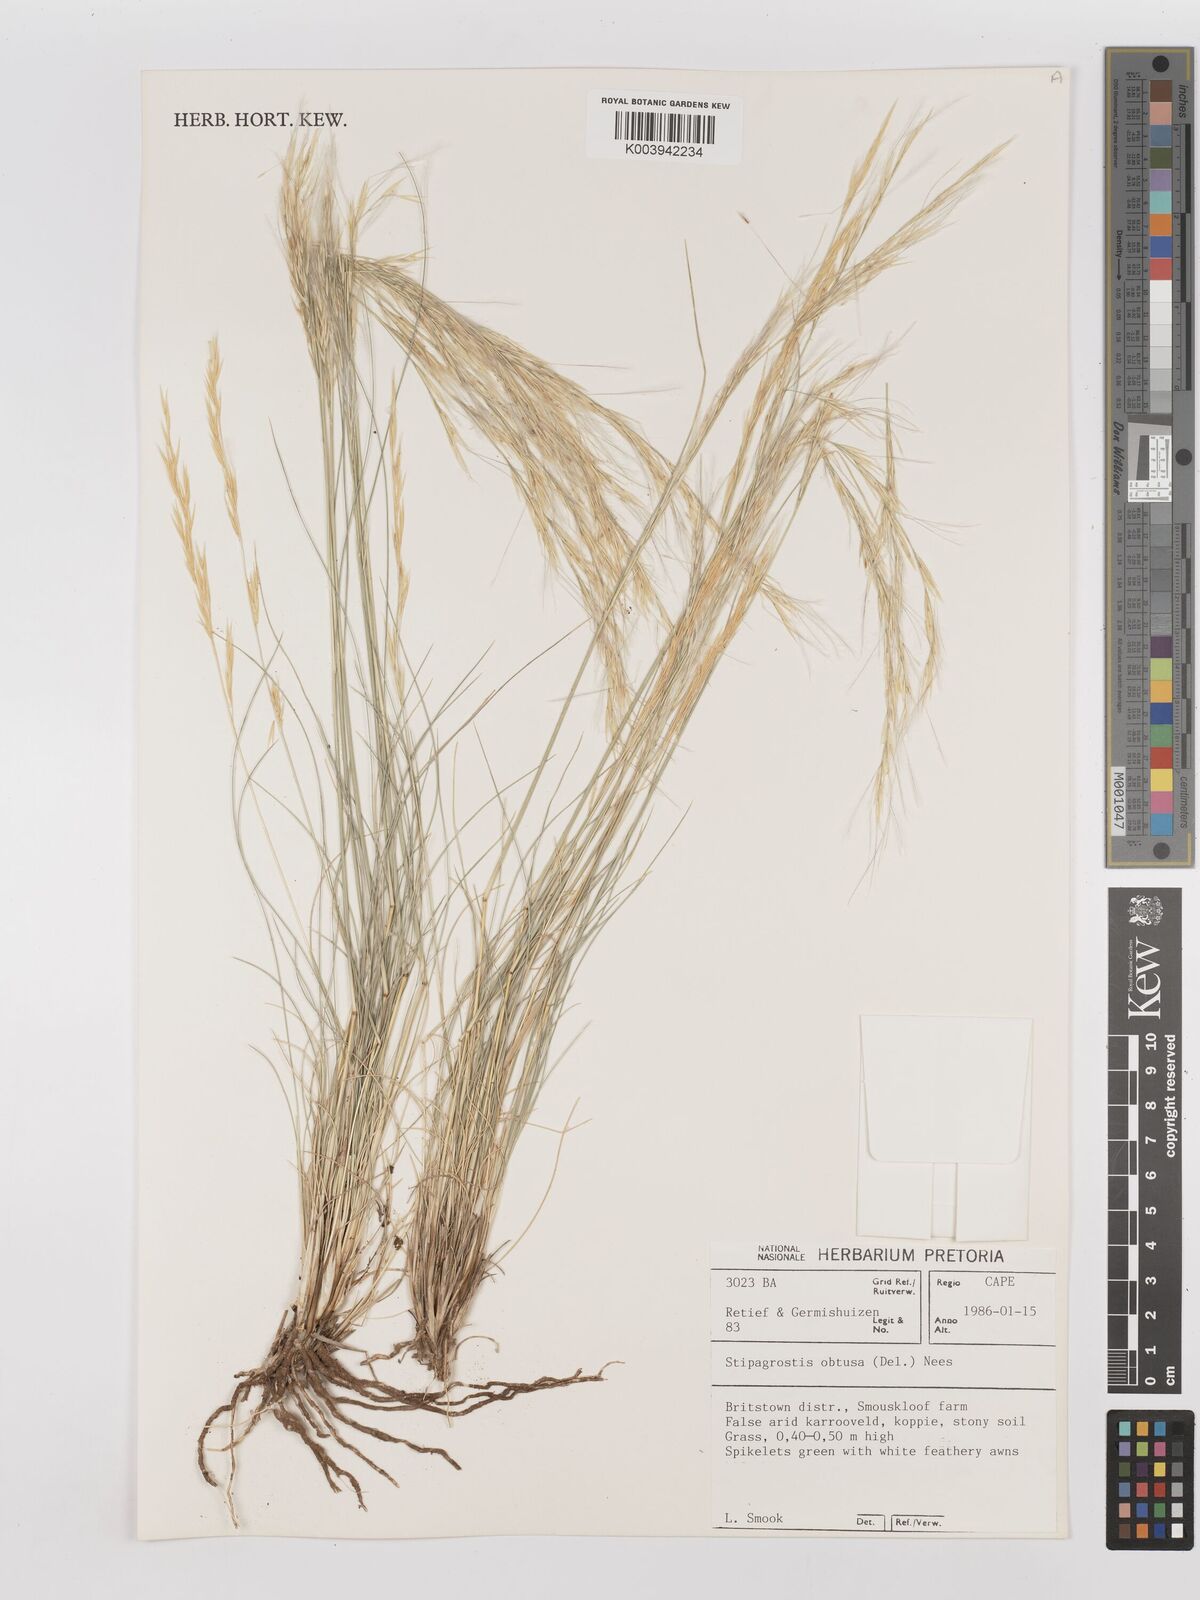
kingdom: Plantae
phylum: Tracheophyta
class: Liliopsida
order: Poales
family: Poaceae
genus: Stipagrostis
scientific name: Stipagrostis obtusa
